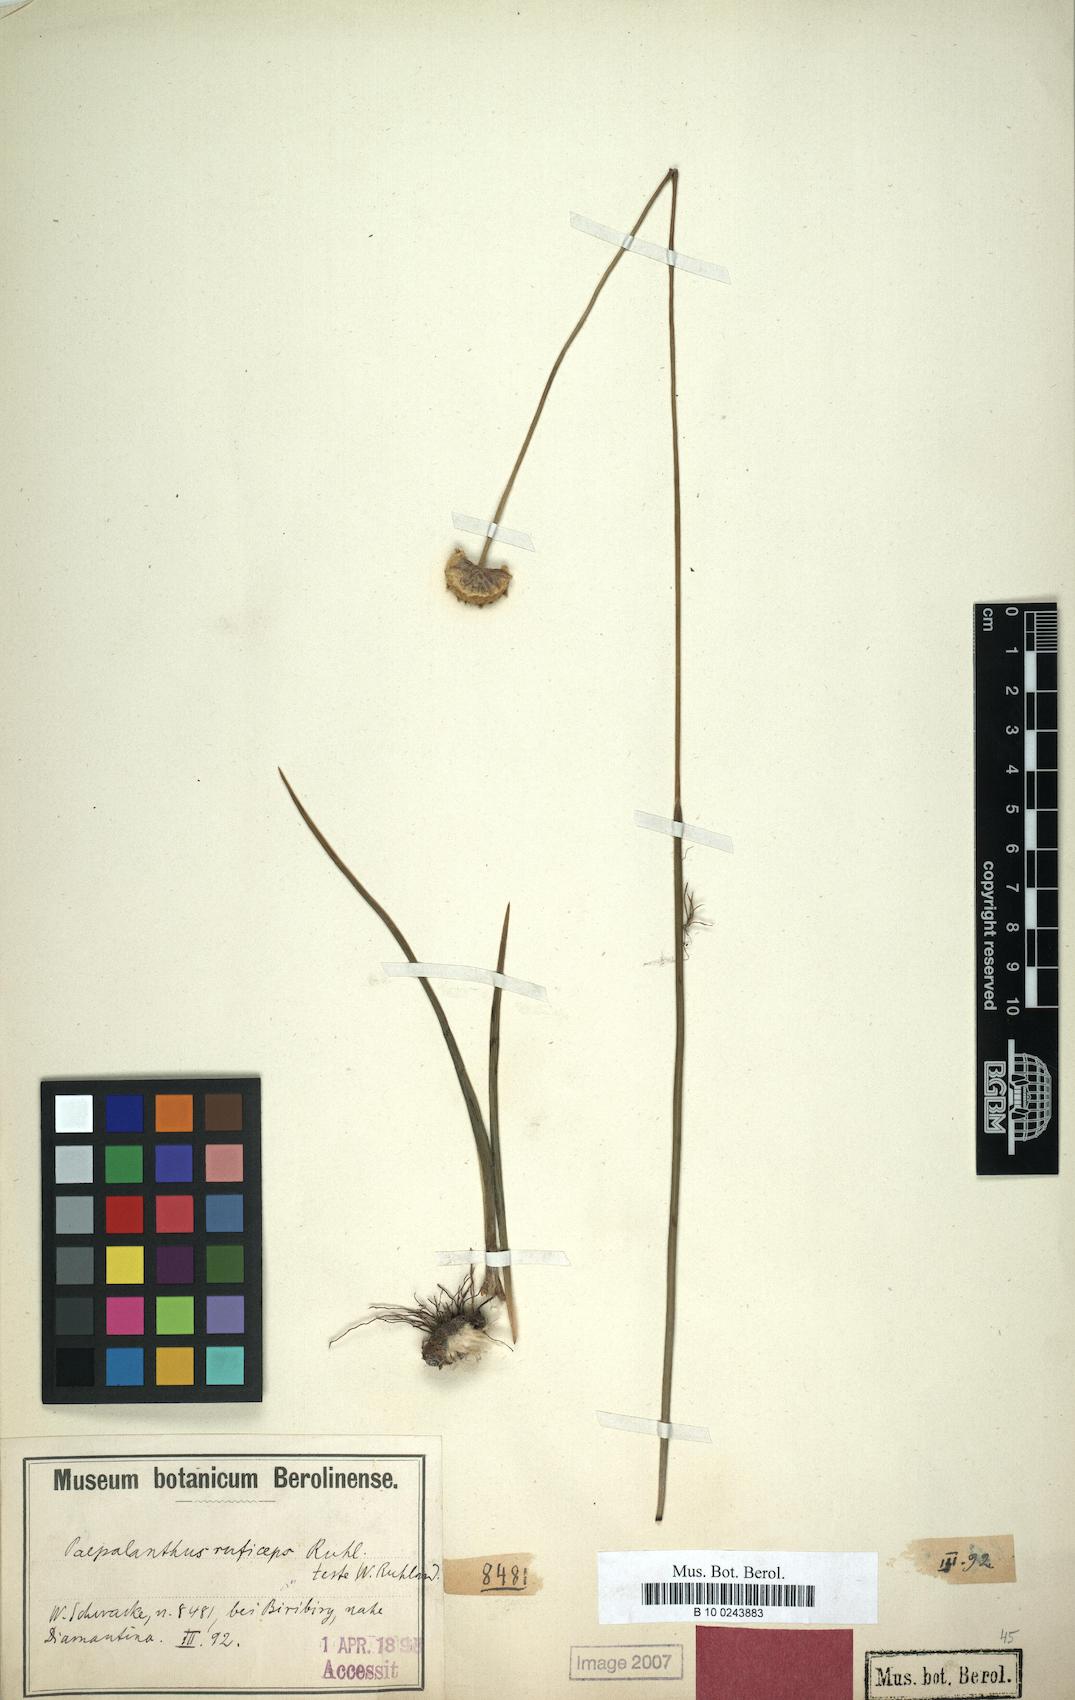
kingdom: Plantae
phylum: Tracheophyta
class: Liliopsida
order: Poales
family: Eriocaulaceae
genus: Paepalanthus
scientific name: Paepalanthus ruficeps
